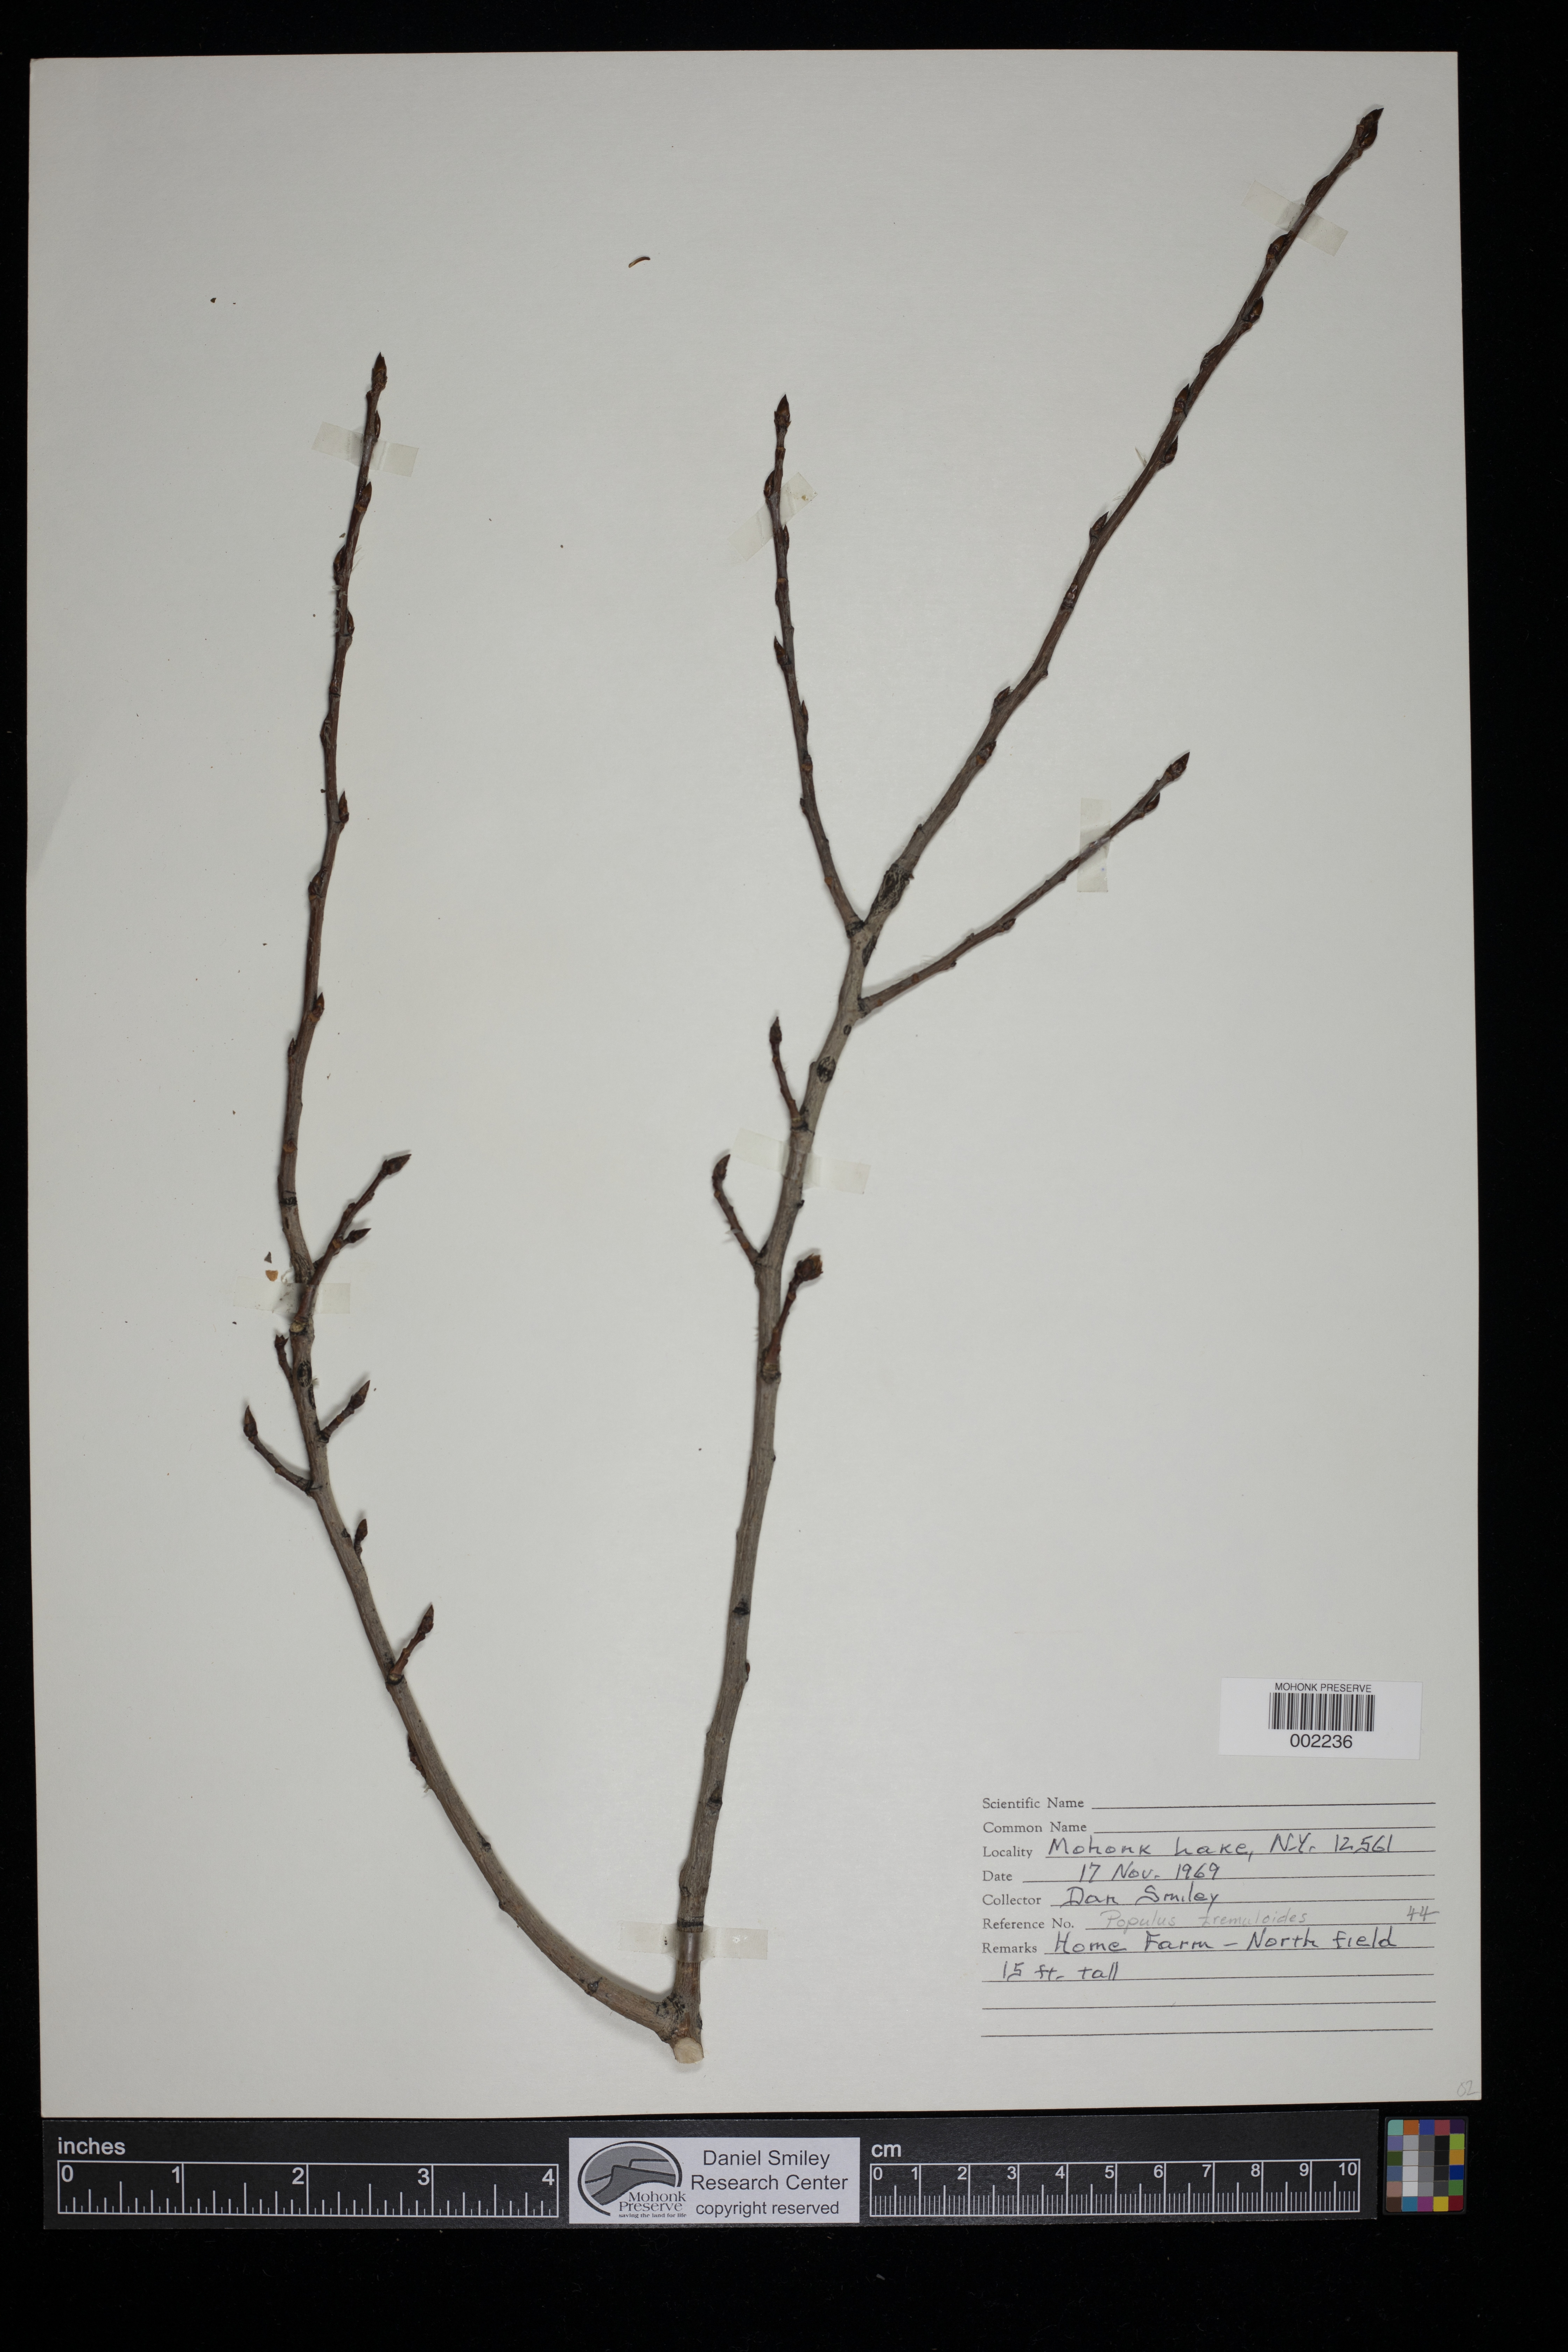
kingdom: Plantae
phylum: Tracheophyta
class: Magnoliopsida
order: Malpighiales
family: Salicaceae
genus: Populus
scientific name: Populus tremuloides
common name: Quaking aspen
